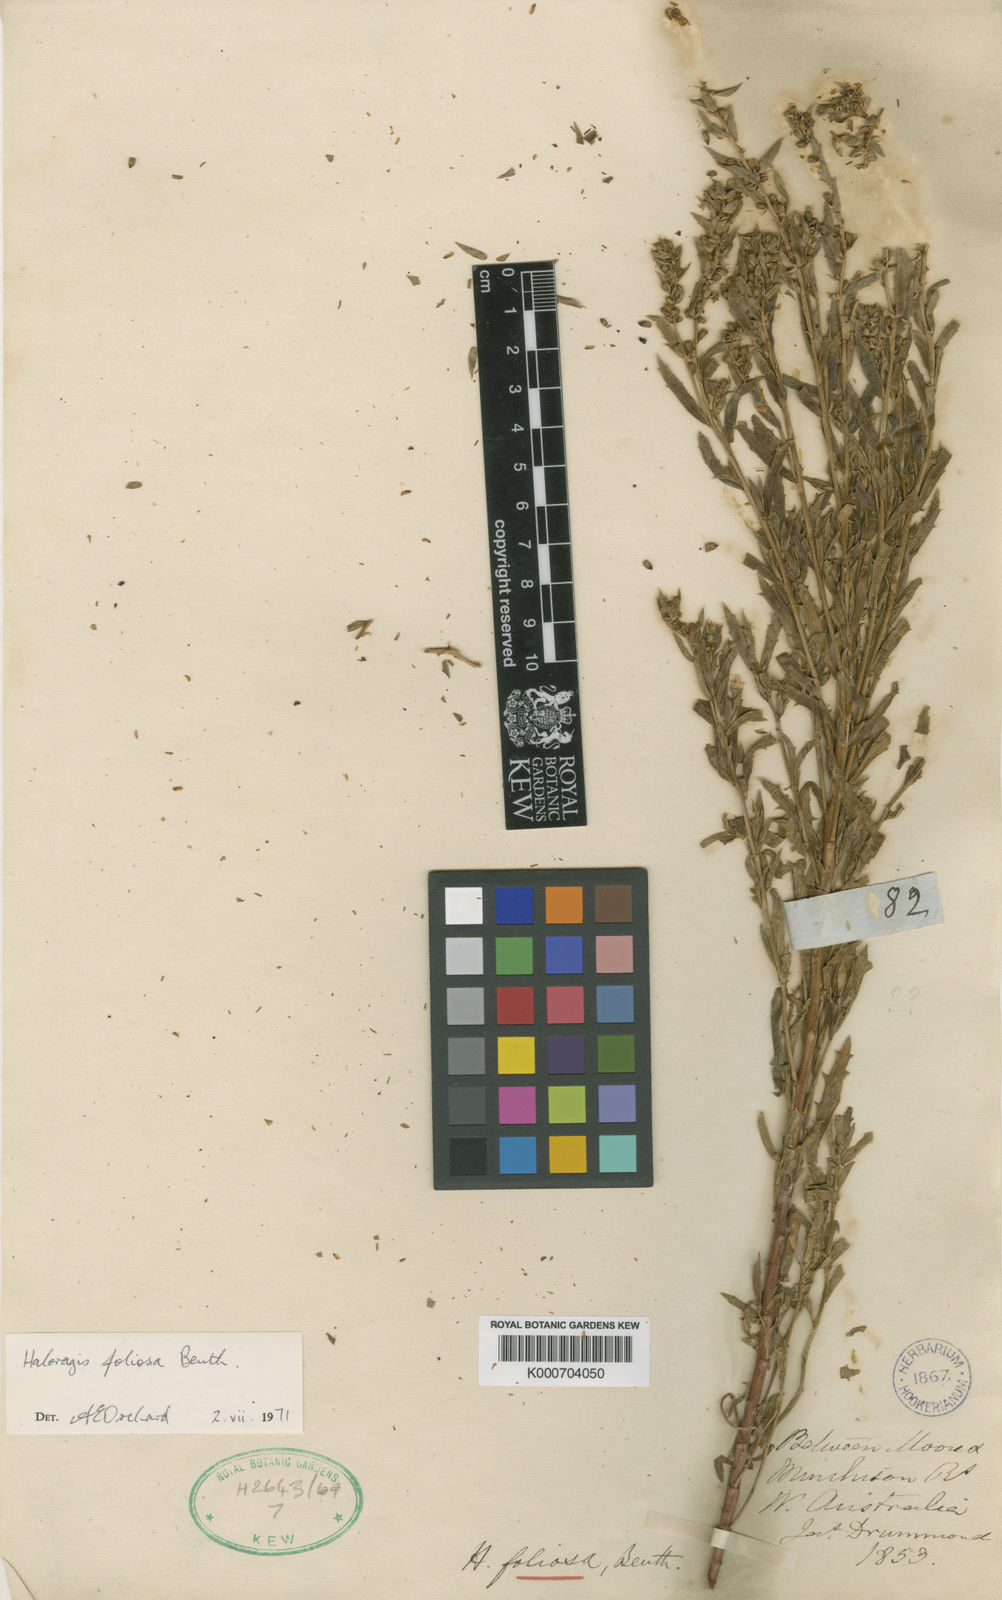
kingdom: Plantae
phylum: Tracheophyta
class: Magnoliopsida
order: Saxifragales
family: Haloragaceae
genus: Haloragis
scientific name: Haloragis foliosa
